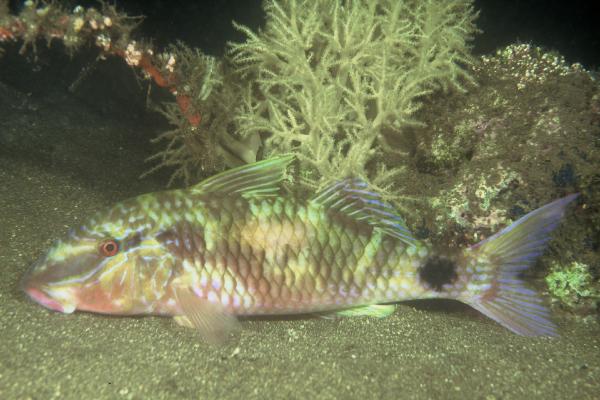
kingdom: Animalia
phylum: Chordata
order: Perciformes
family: Mullidae
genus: Parupeneus
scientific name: Parupeneus indicus
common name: Indian goatfish
